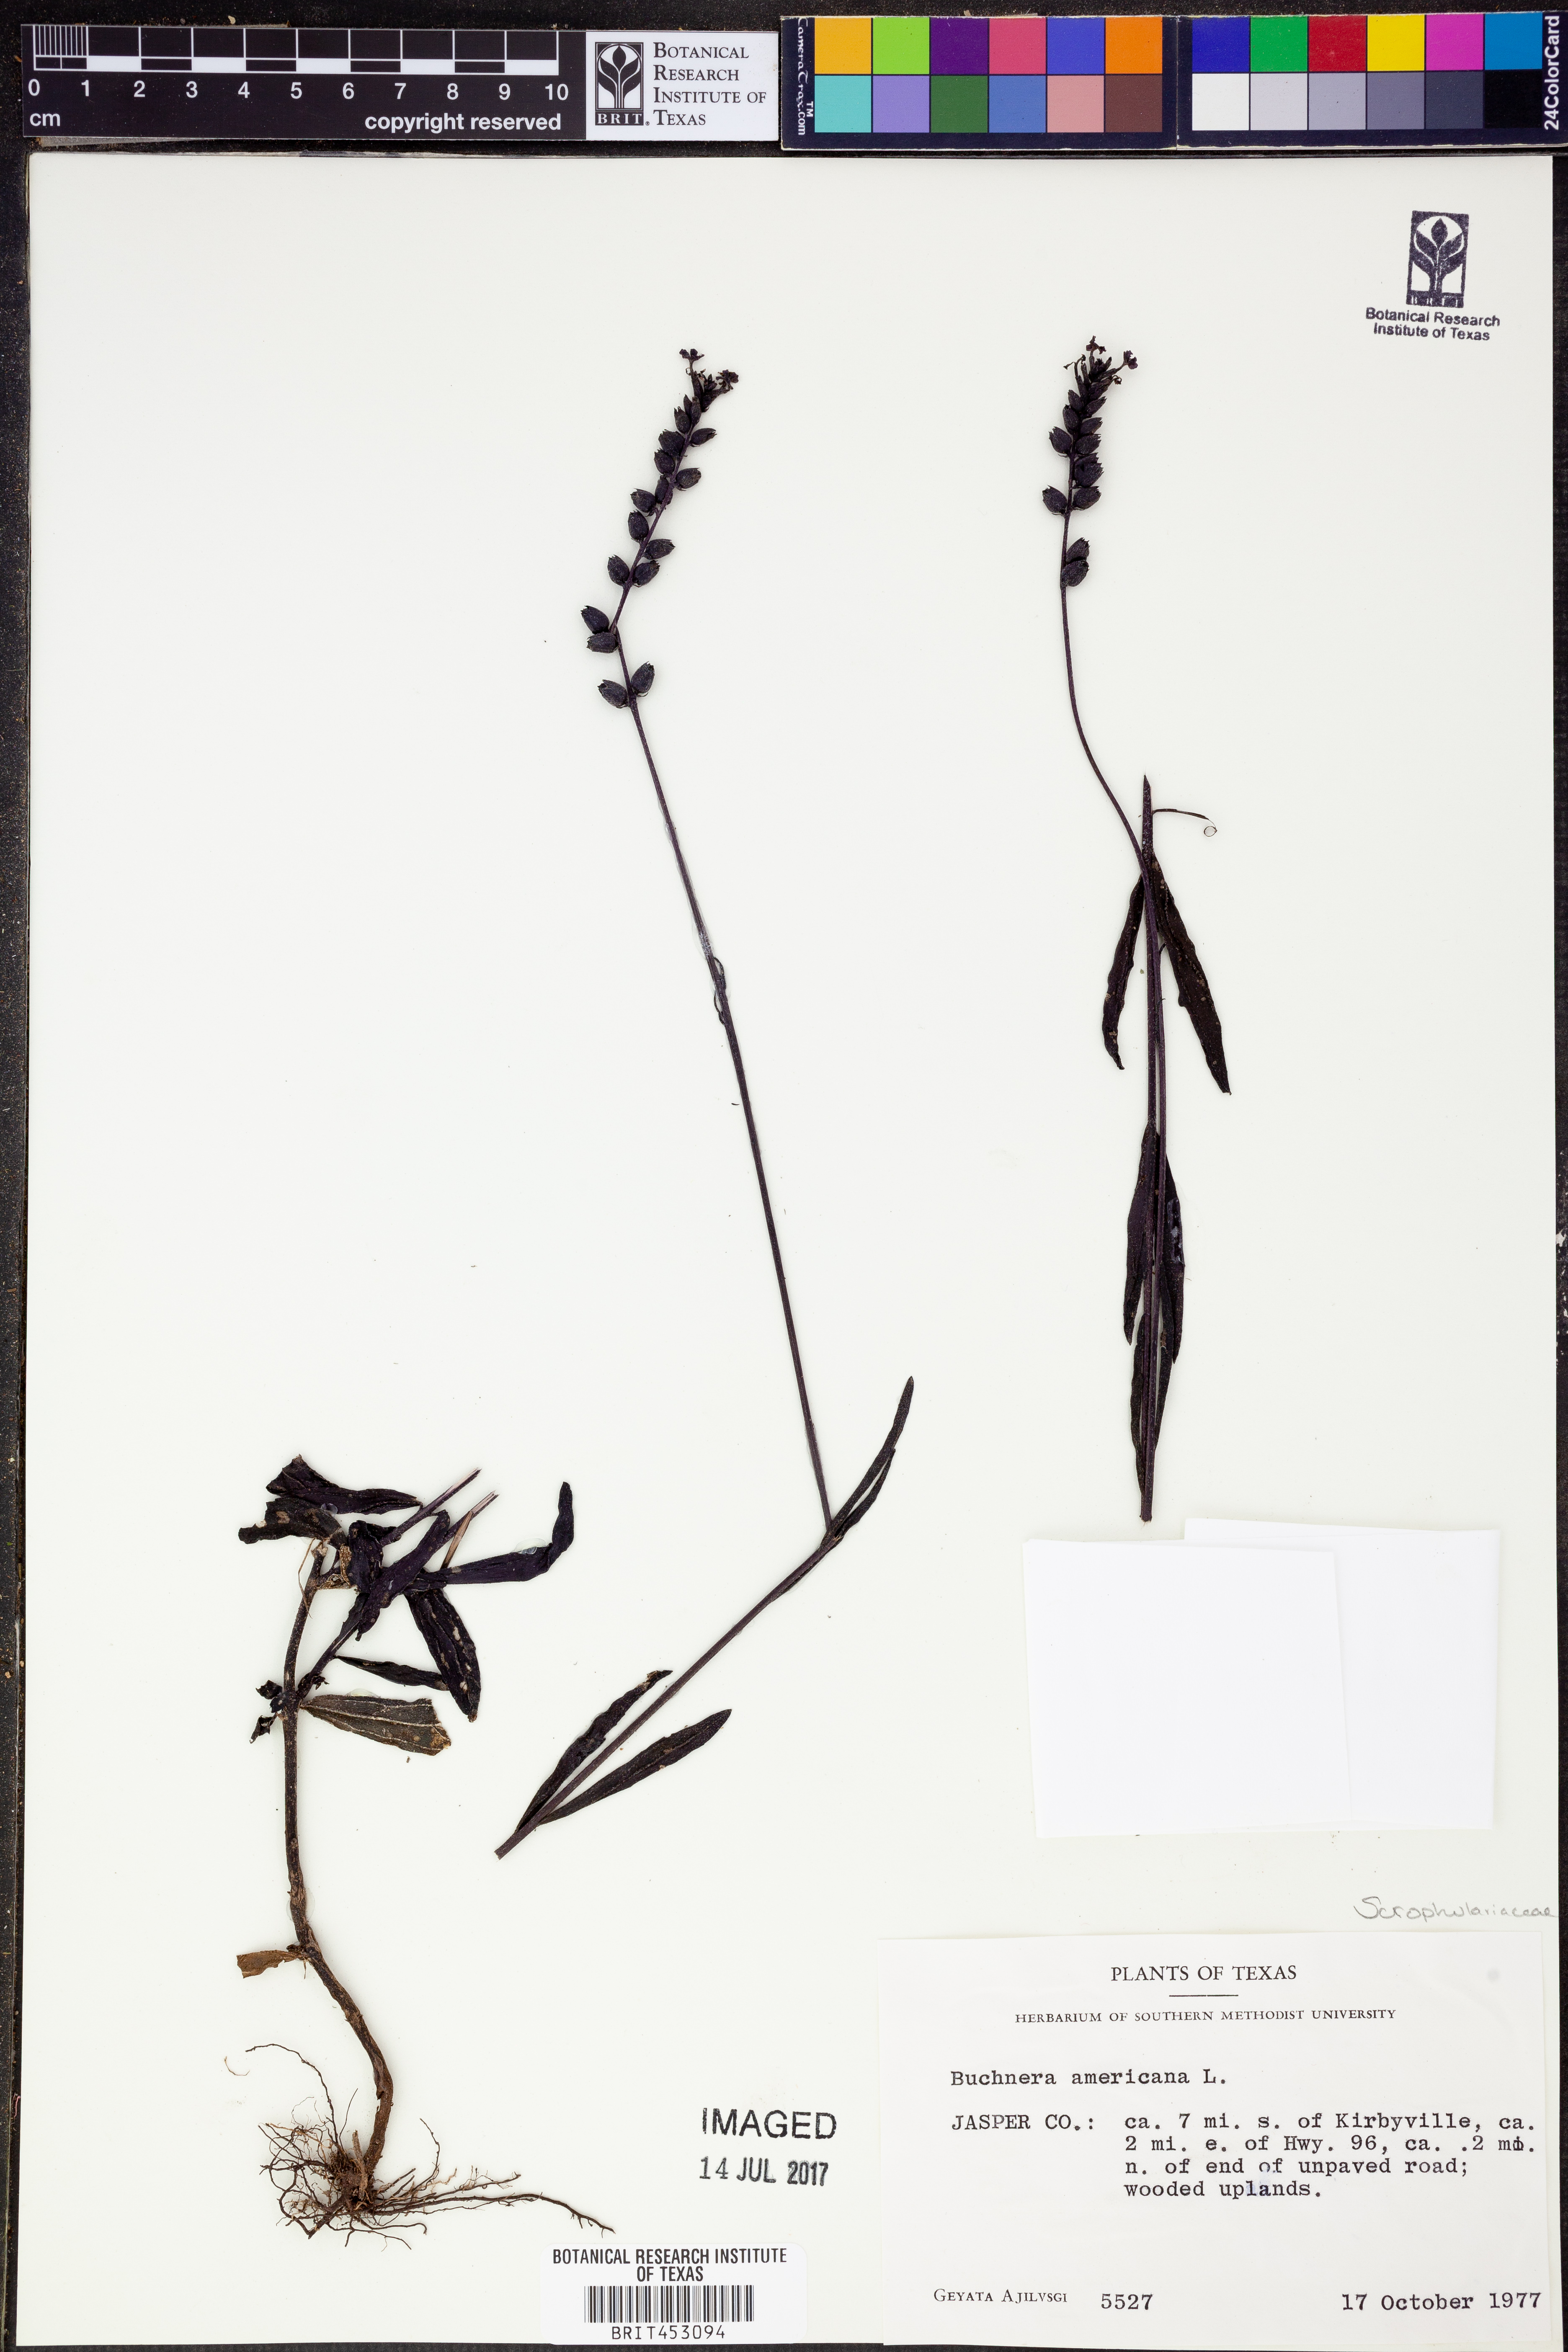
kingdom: Plantae
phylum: Tracheophyta
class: Magnoliopsida
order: Lamiales
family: Orobanchaceae
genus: Buchnera
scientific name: Buchnera americana
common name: American bluehearts
